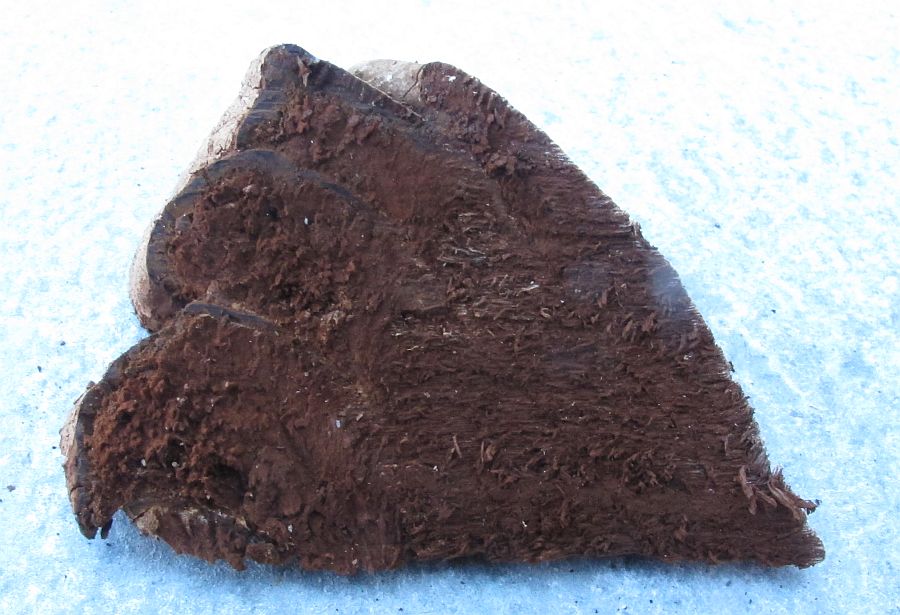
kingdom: Fungi
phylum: Basidiomycota
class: Agaricomycetes
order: Polyporales
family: Polyporaceae
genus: Ganoderma
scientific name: Ganoderma adspersum
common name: grov lakporesvamp
